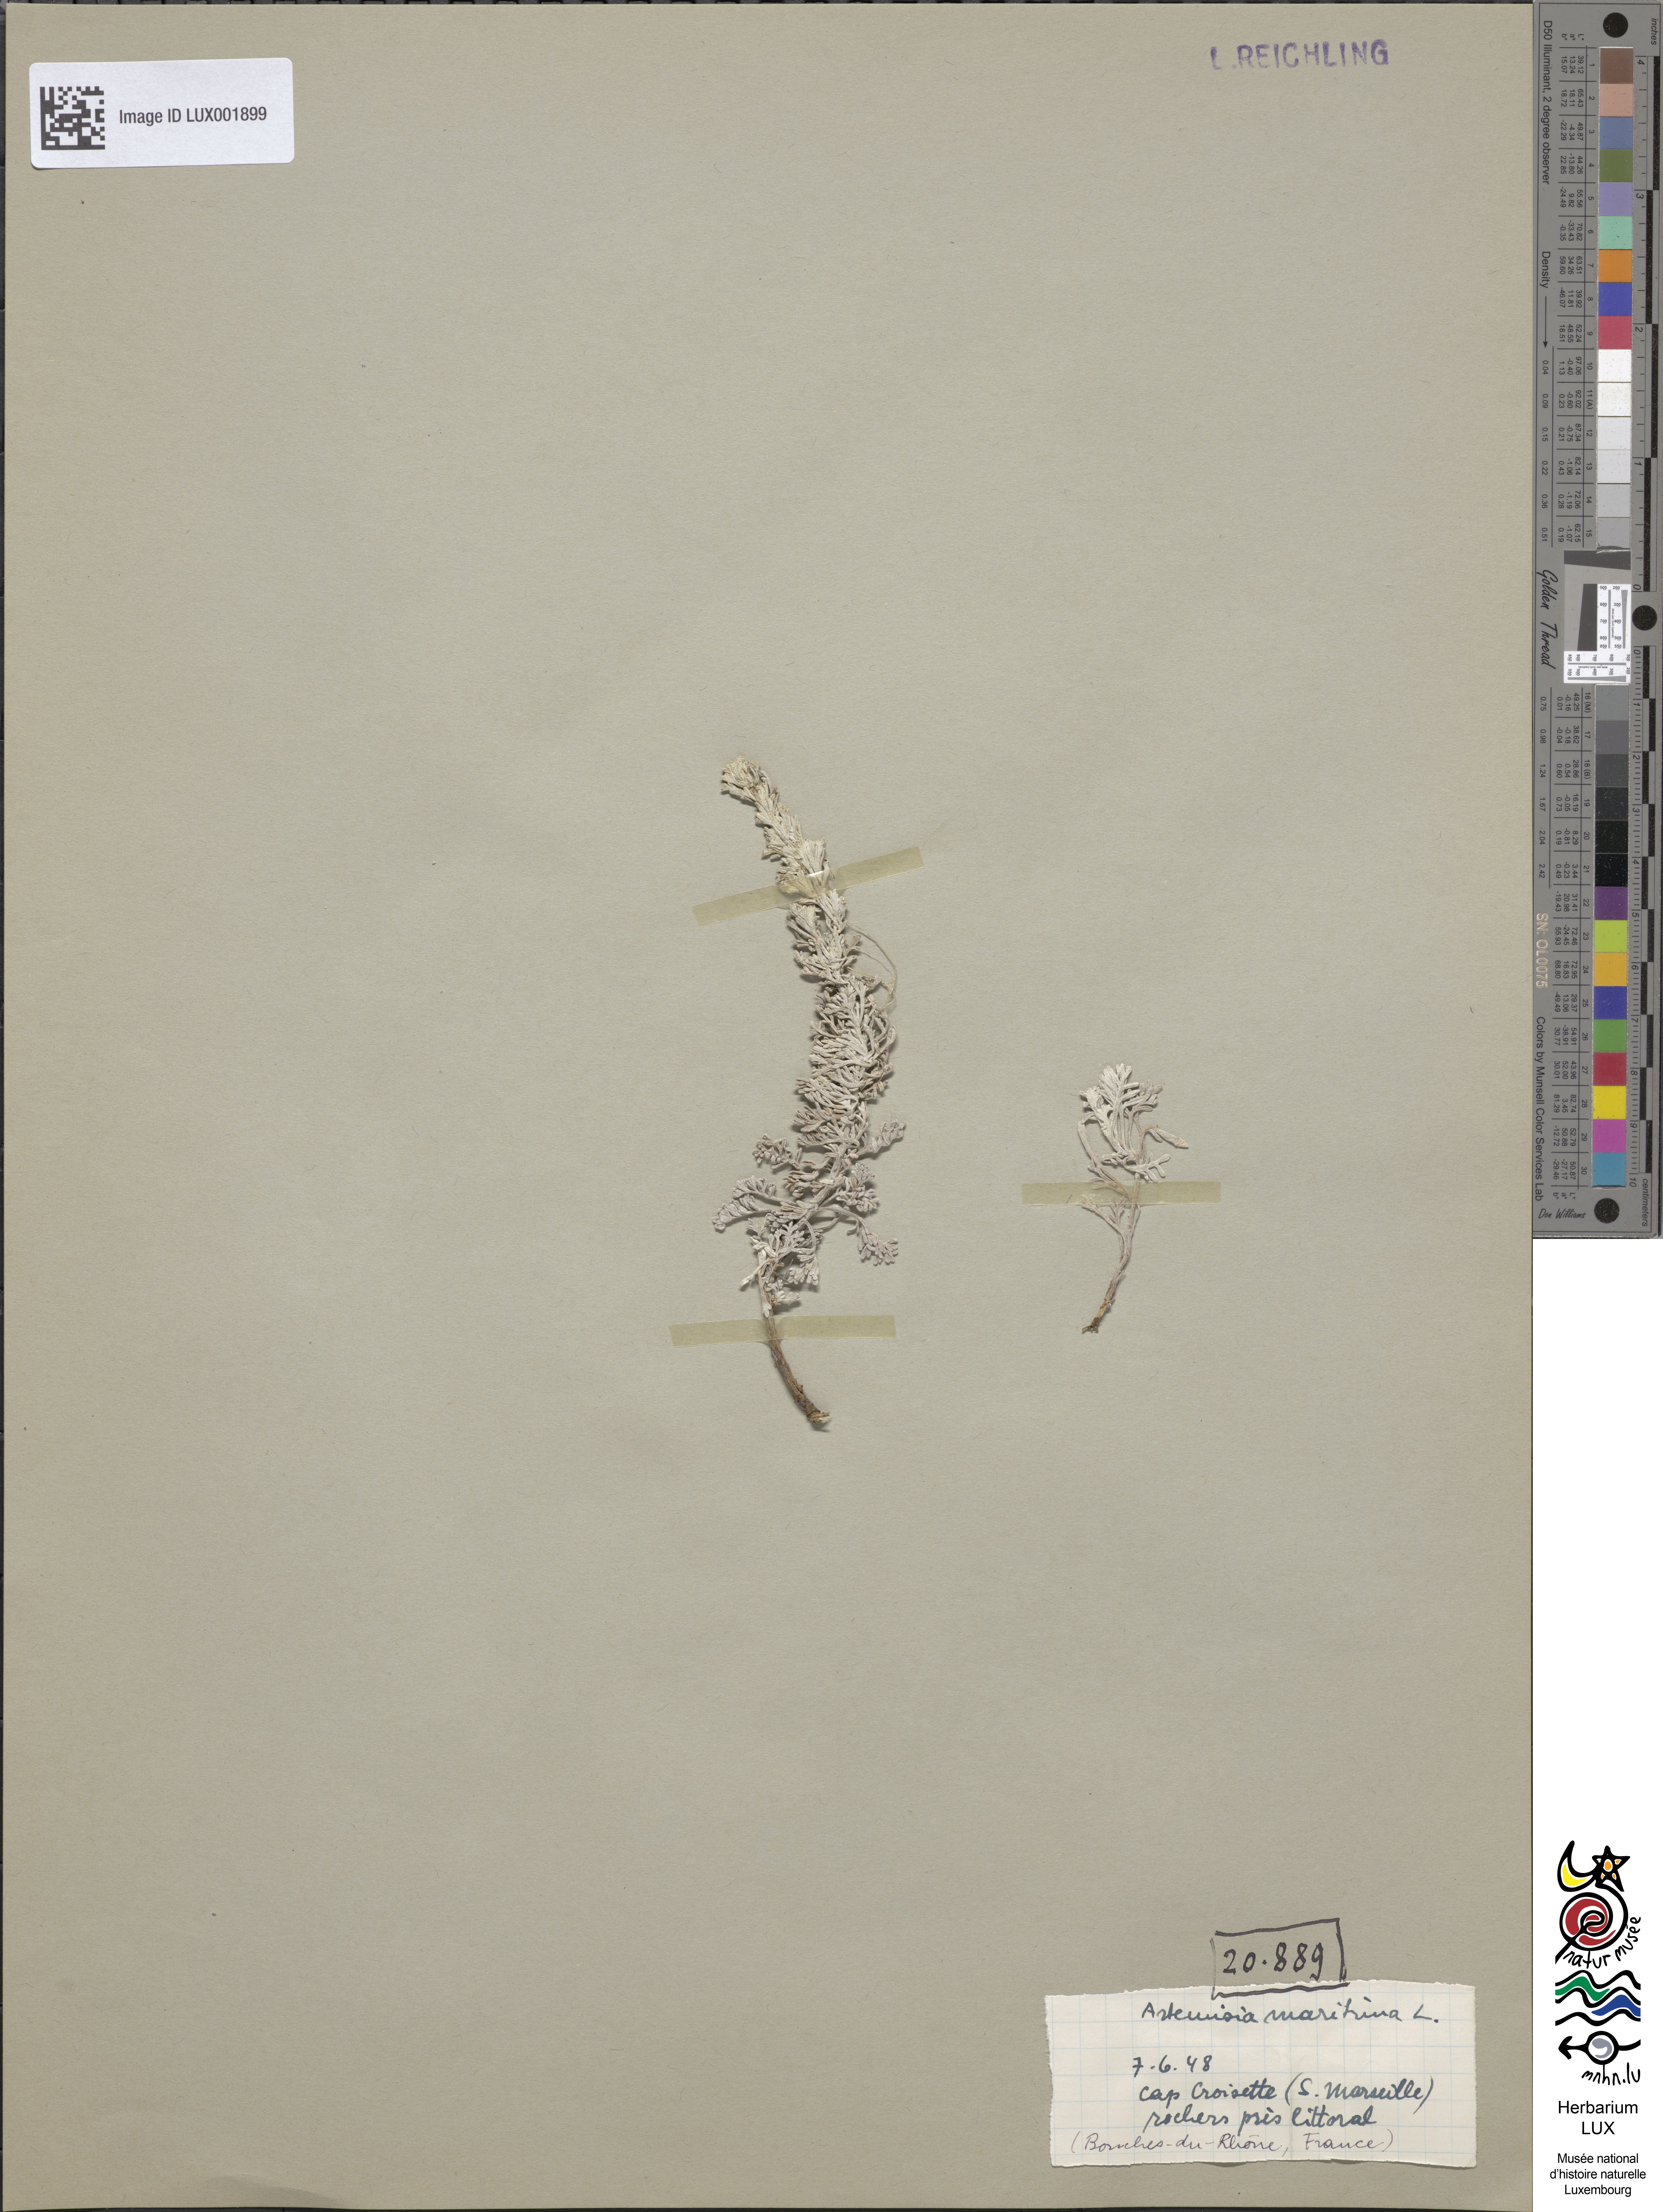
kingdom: Plantae
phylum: Tracheophyta
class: Magnoliopsida
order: Asterales
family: Asteraceae
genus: Artemisia
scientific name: Artemisia maritima
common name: Wormseed
